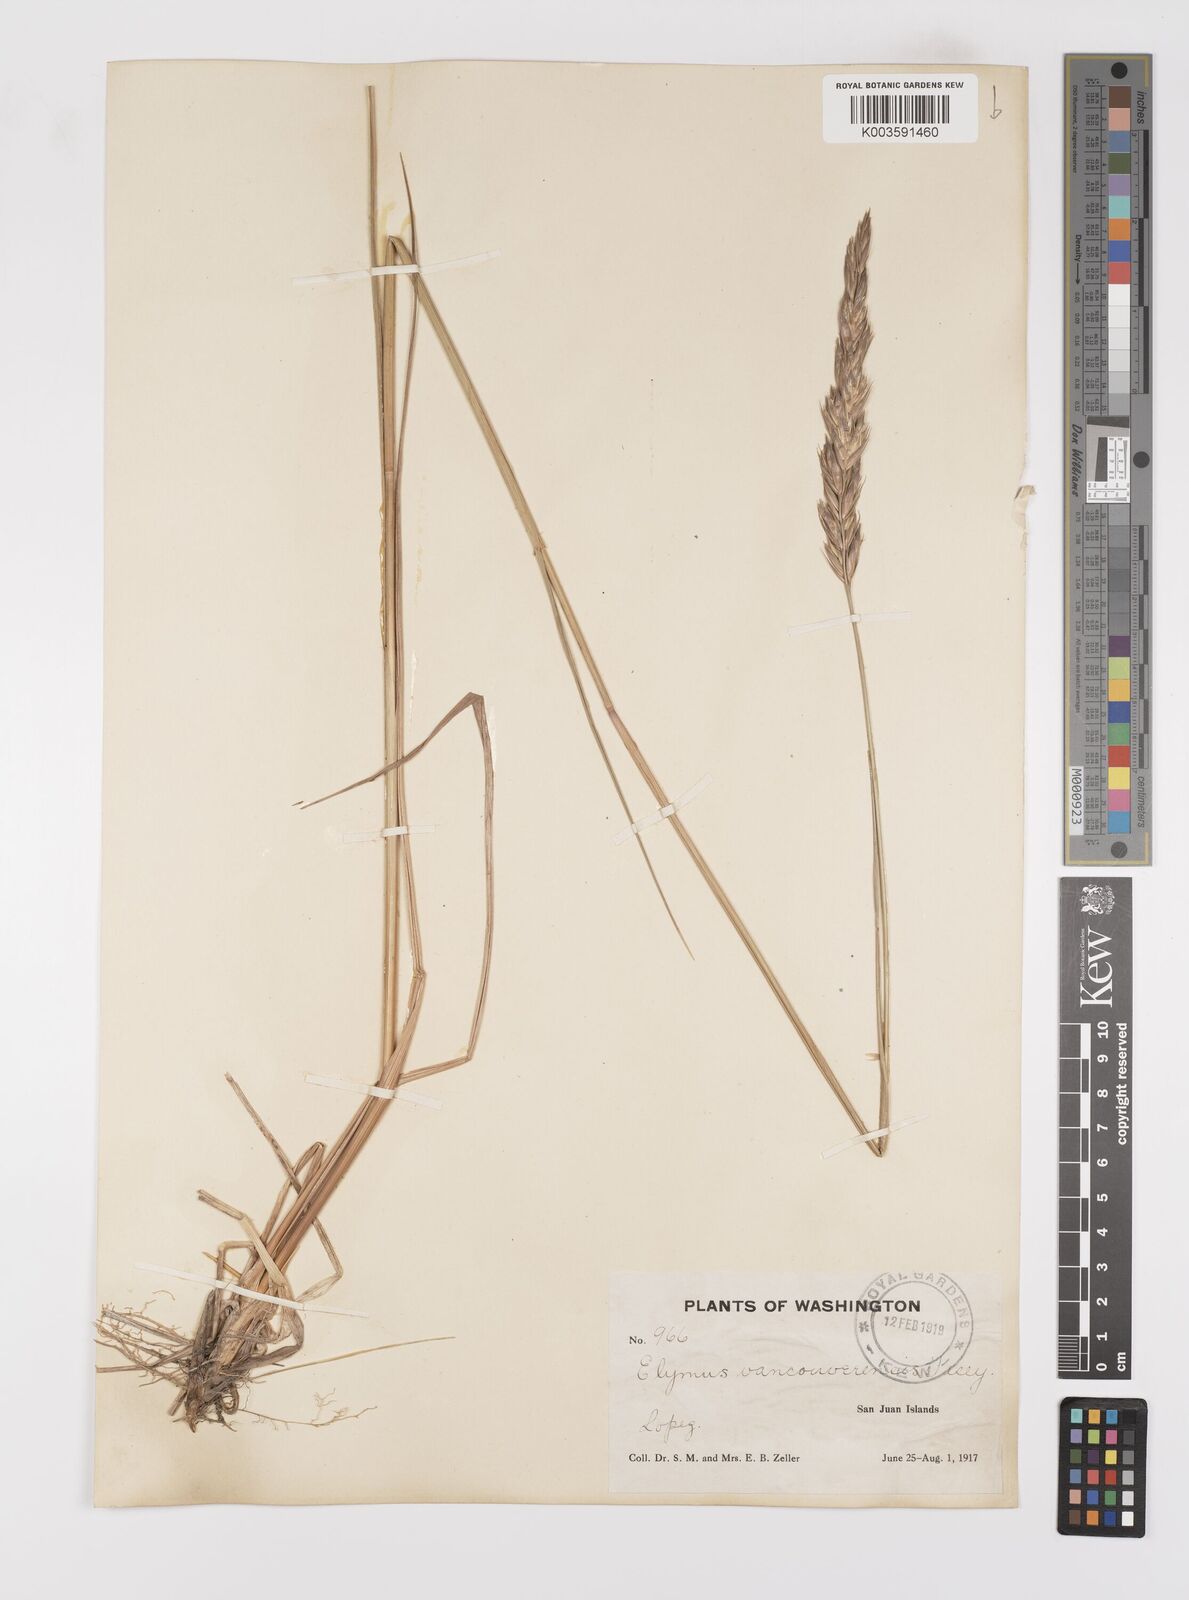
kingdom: Plantae
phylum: Tracheophyta
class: Liliopsida
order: Poales
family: Poaceae
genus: Leymus
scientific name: Leymus vancouverensis
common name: Vancouver wild rye
